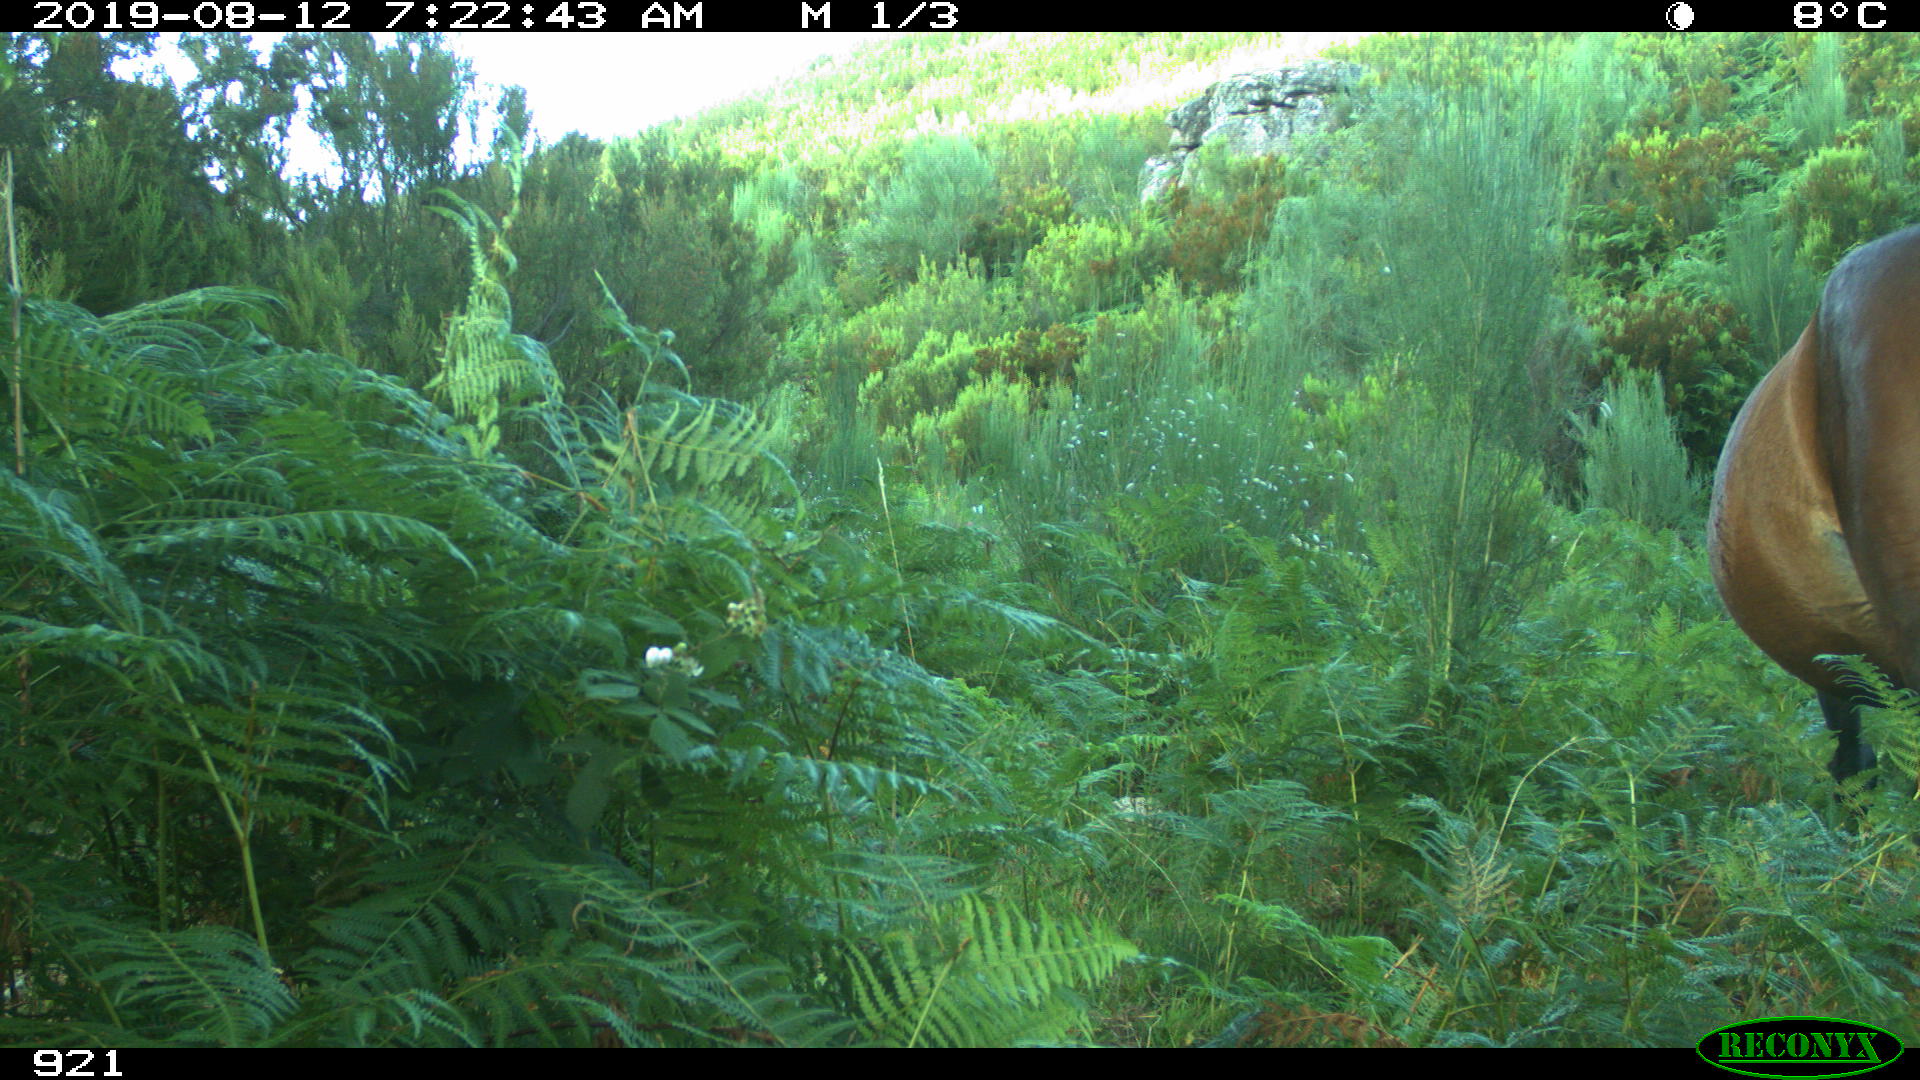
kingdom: Animalia
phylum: Chordata
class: Mammalia
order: Perissodactyla
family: Equidae
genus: Equus
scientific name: Equus caballus
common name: Horse
